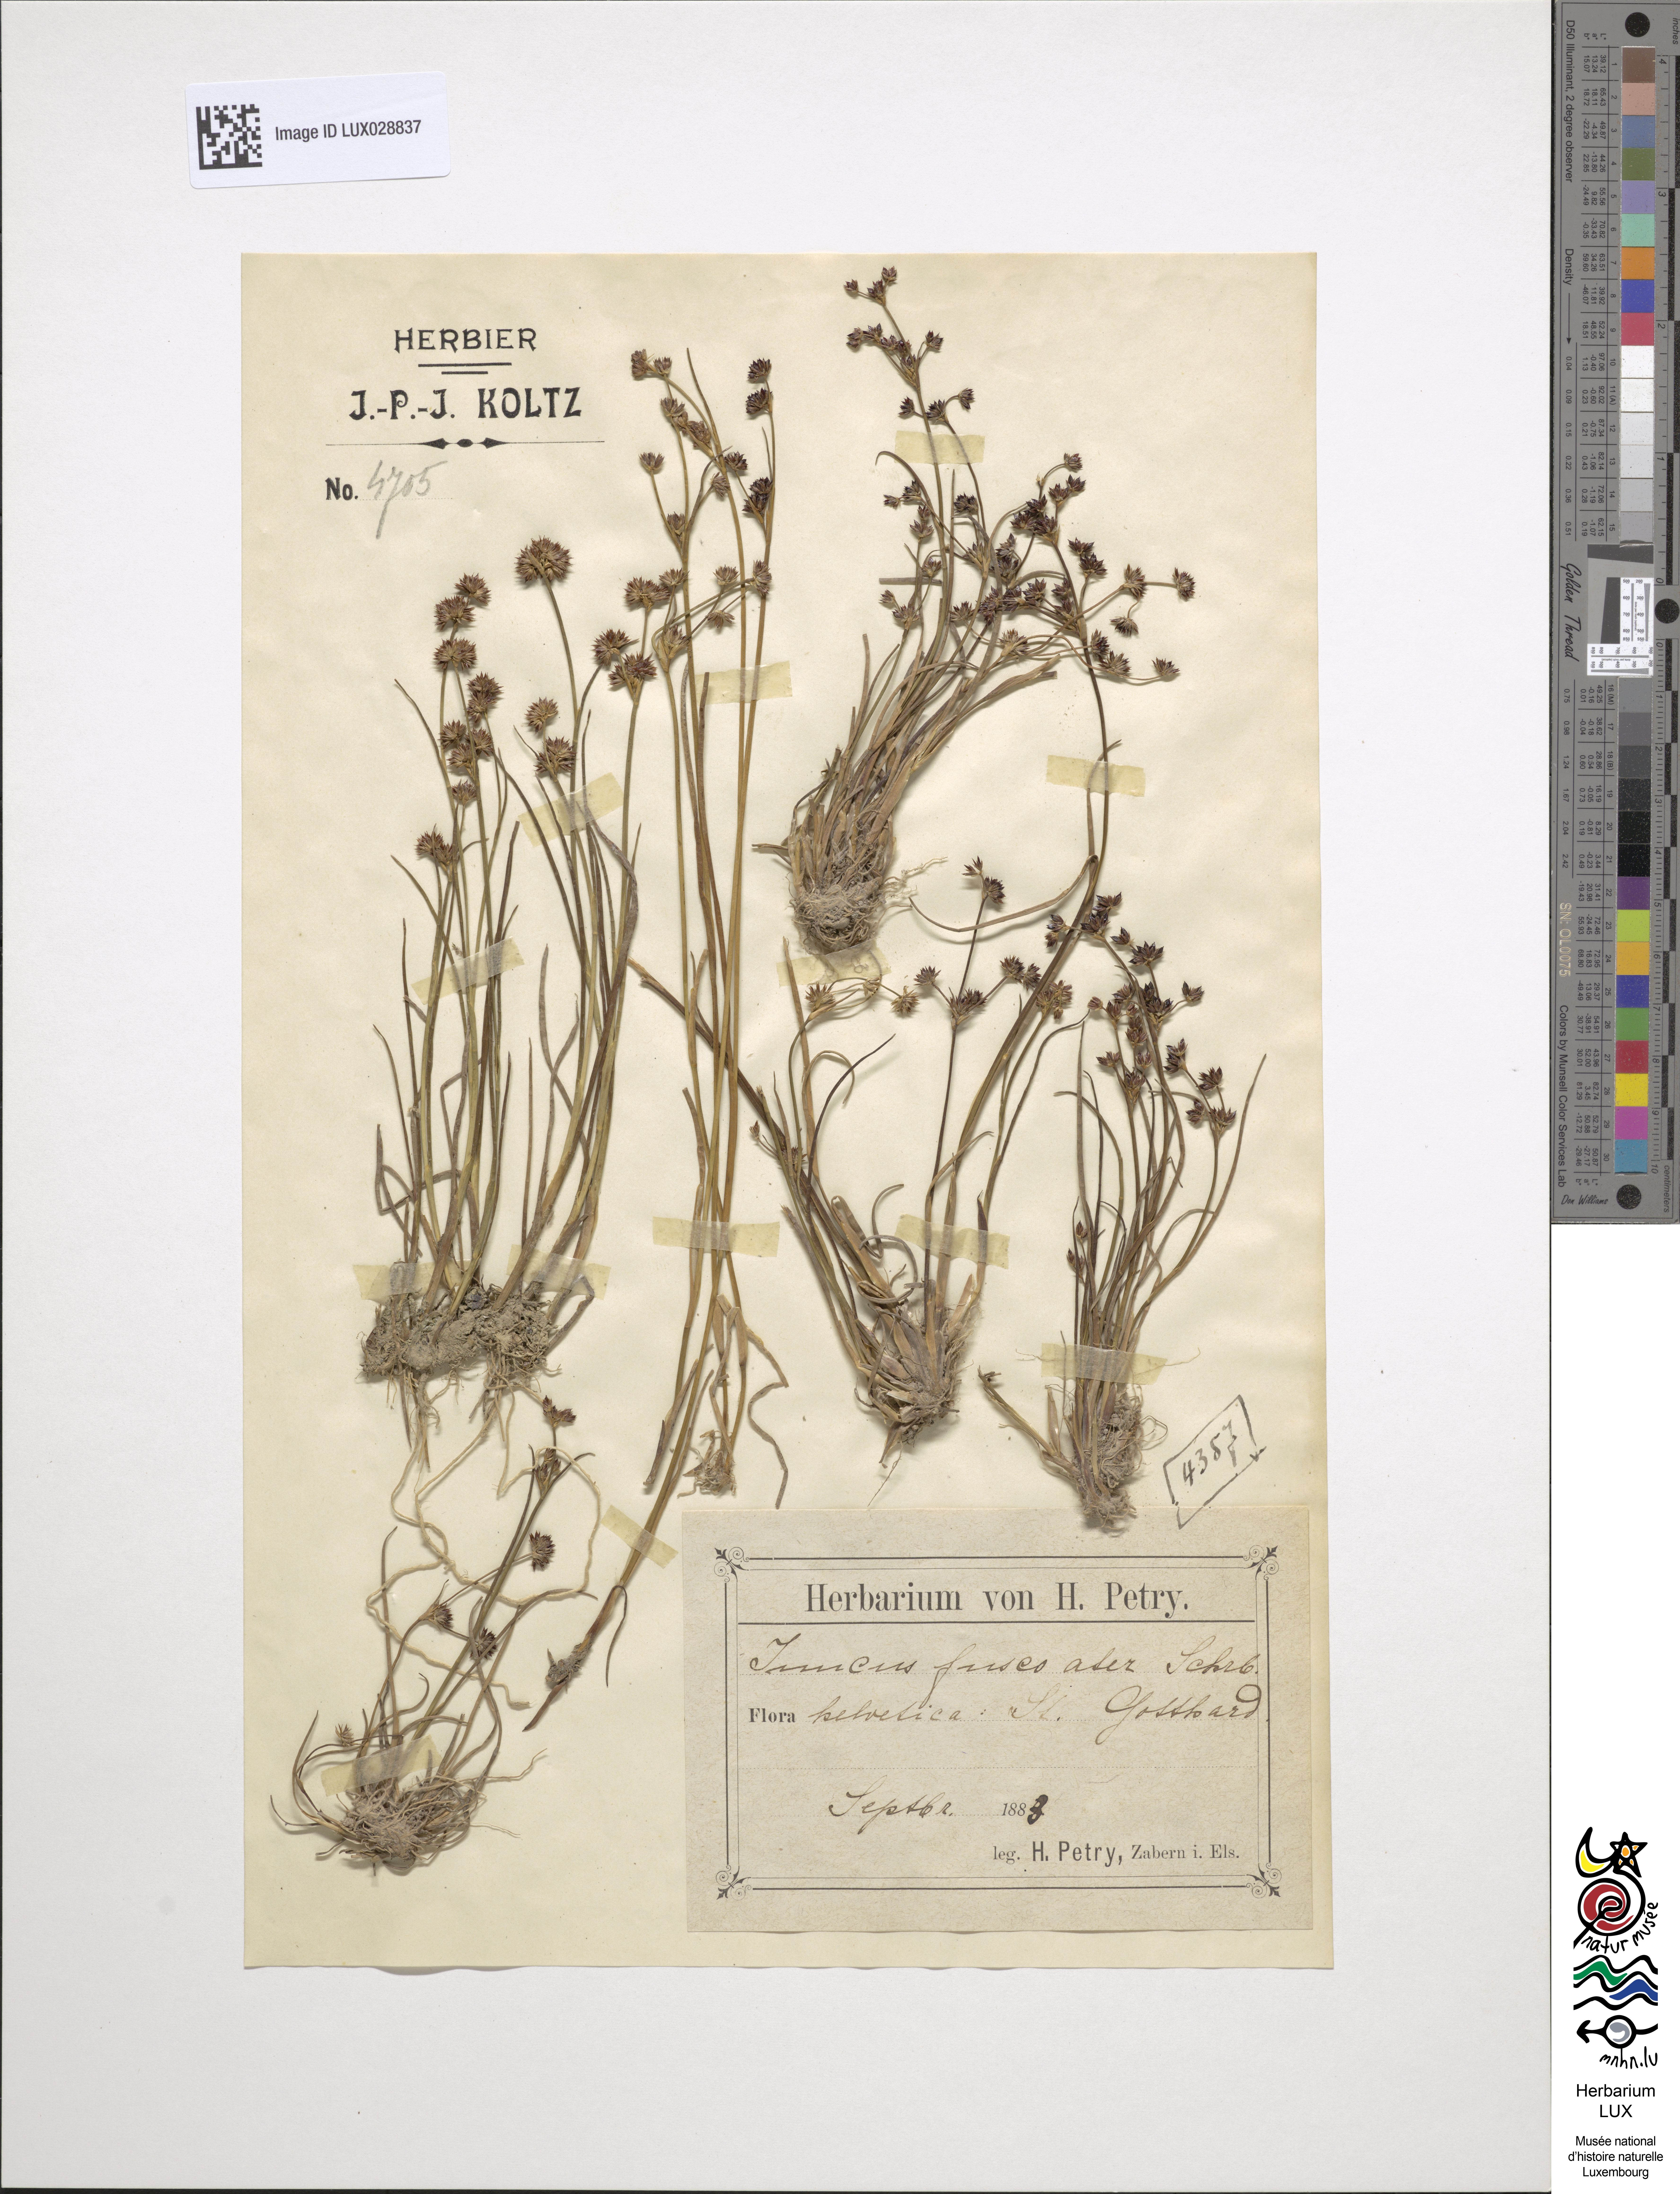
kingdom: Plantae
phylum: Tracheophyta
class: Liliopsida
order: Poales
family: Juncaceae
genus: Juncus
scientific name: Juncus alpinoarticulatus
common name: Alpine rush
